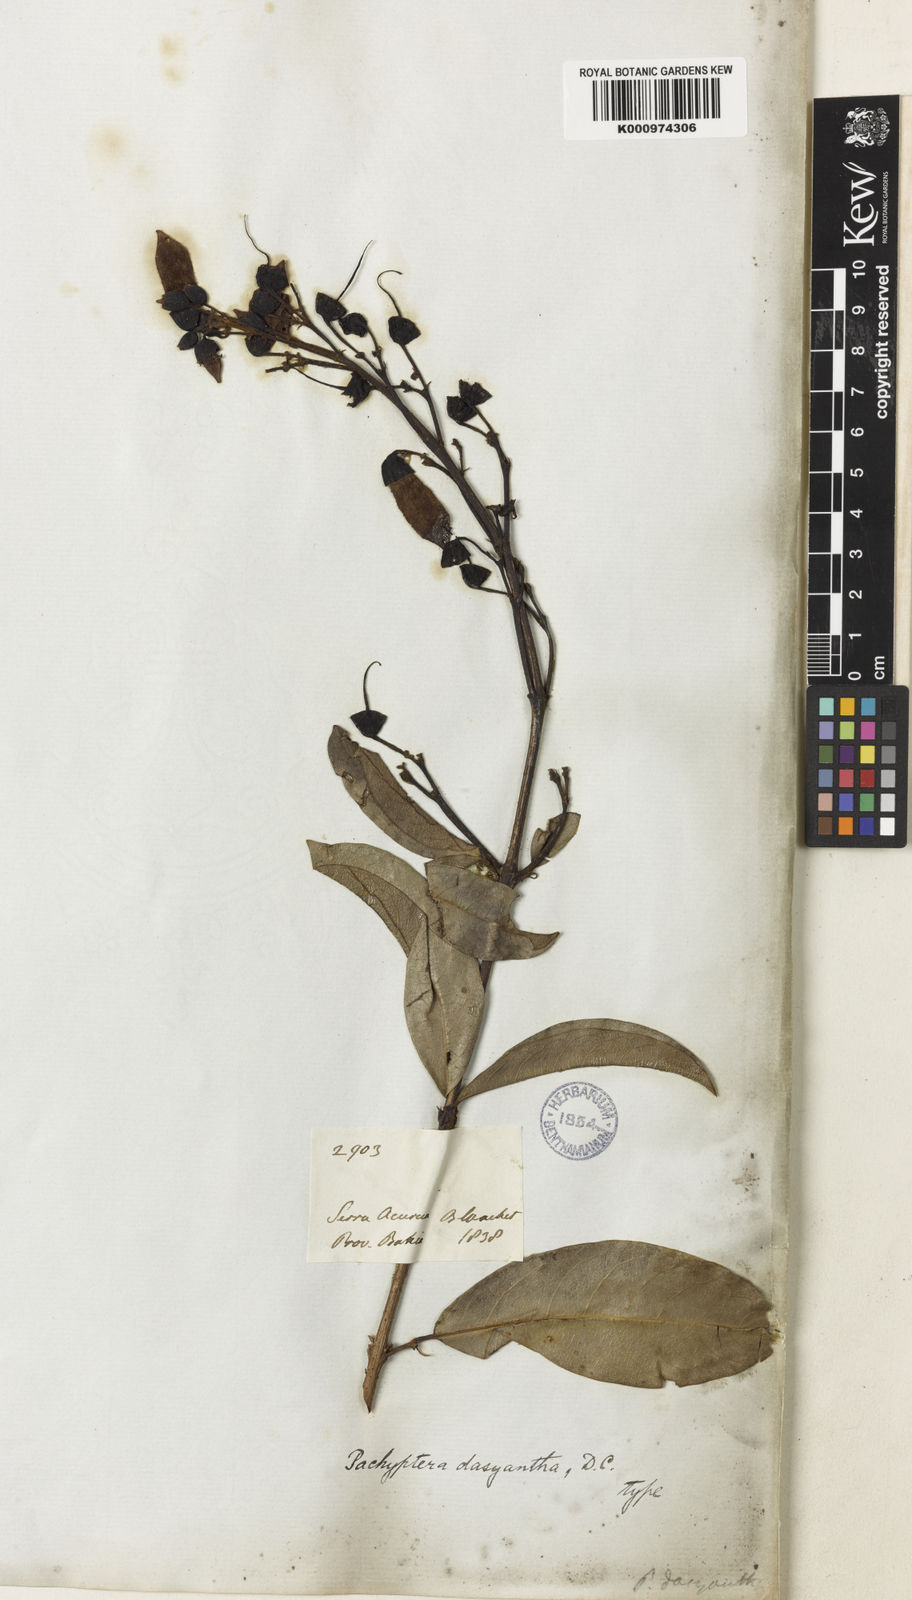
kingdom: Plantae
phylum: Tracheophyta
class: Magnoliopsida
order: Lamiales
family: Bignoniaceae
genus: Tanaecium
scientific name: Tanaecium pyramidatum
